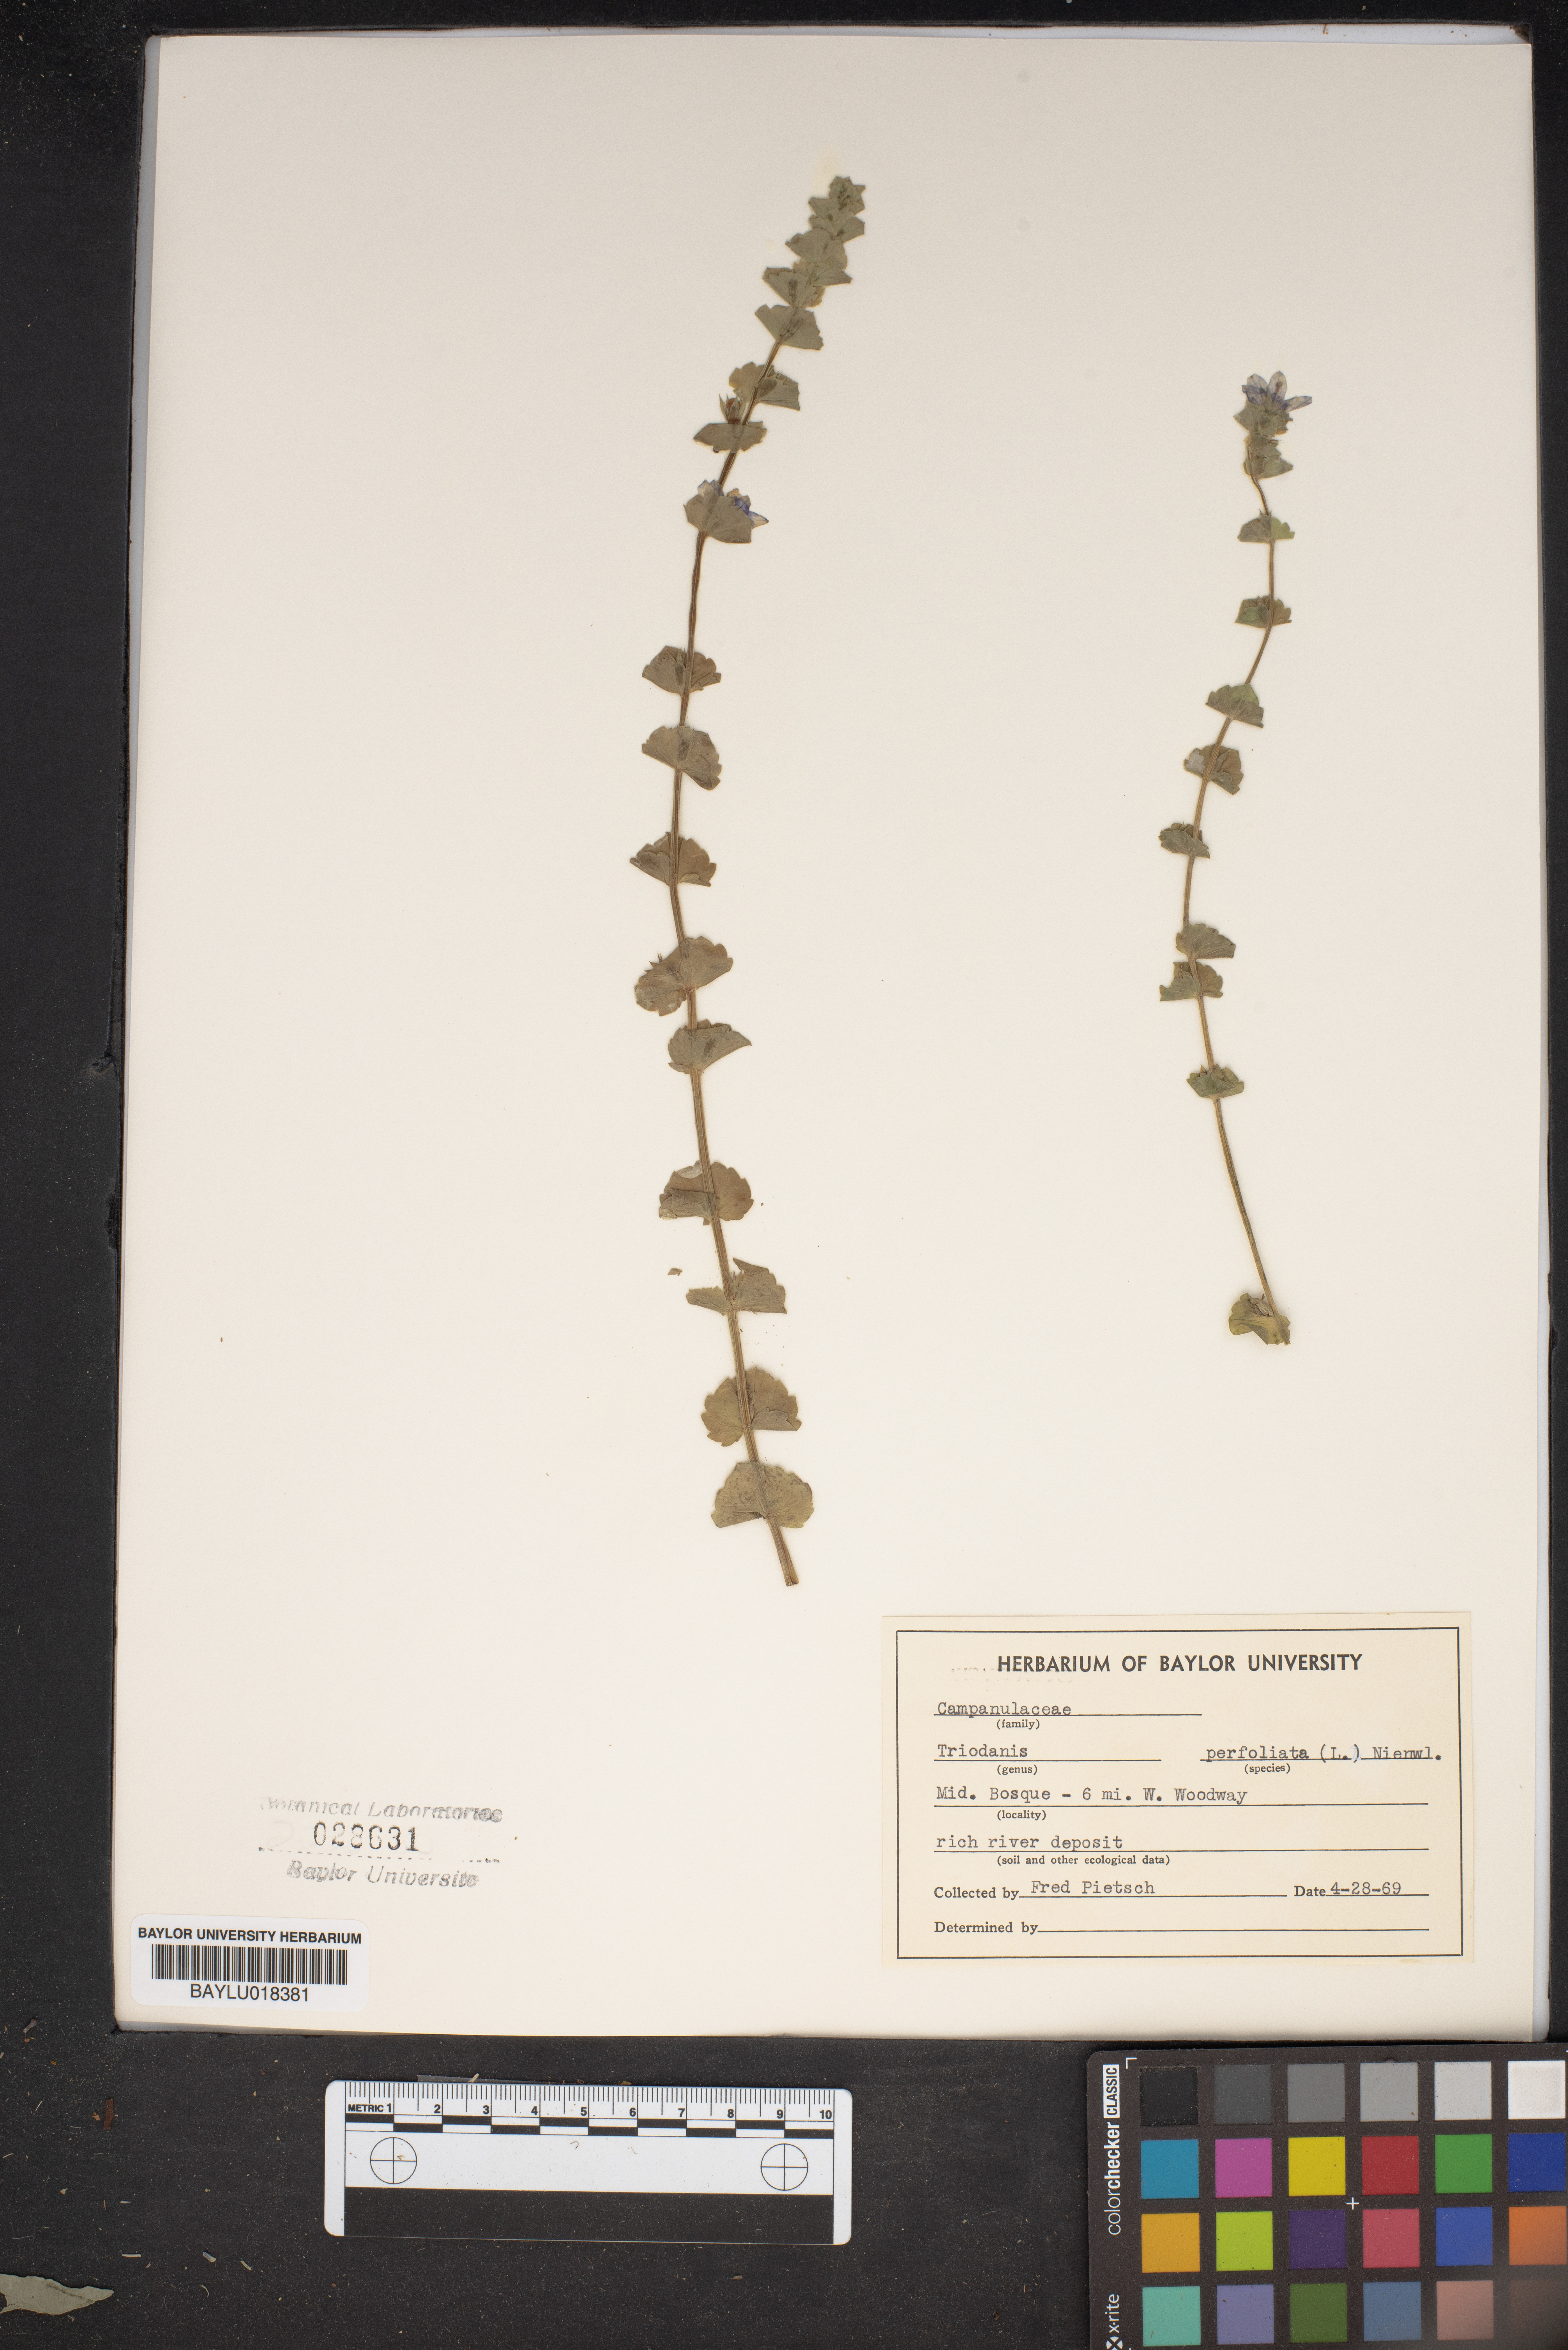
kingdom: Plantae
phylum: Tracheophyta
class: Magnoliopsida
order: Asterales
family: Campanulaceae
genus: Triodanis
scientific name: Triodanis perfoliata
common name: Clasping venus' looking-glass
